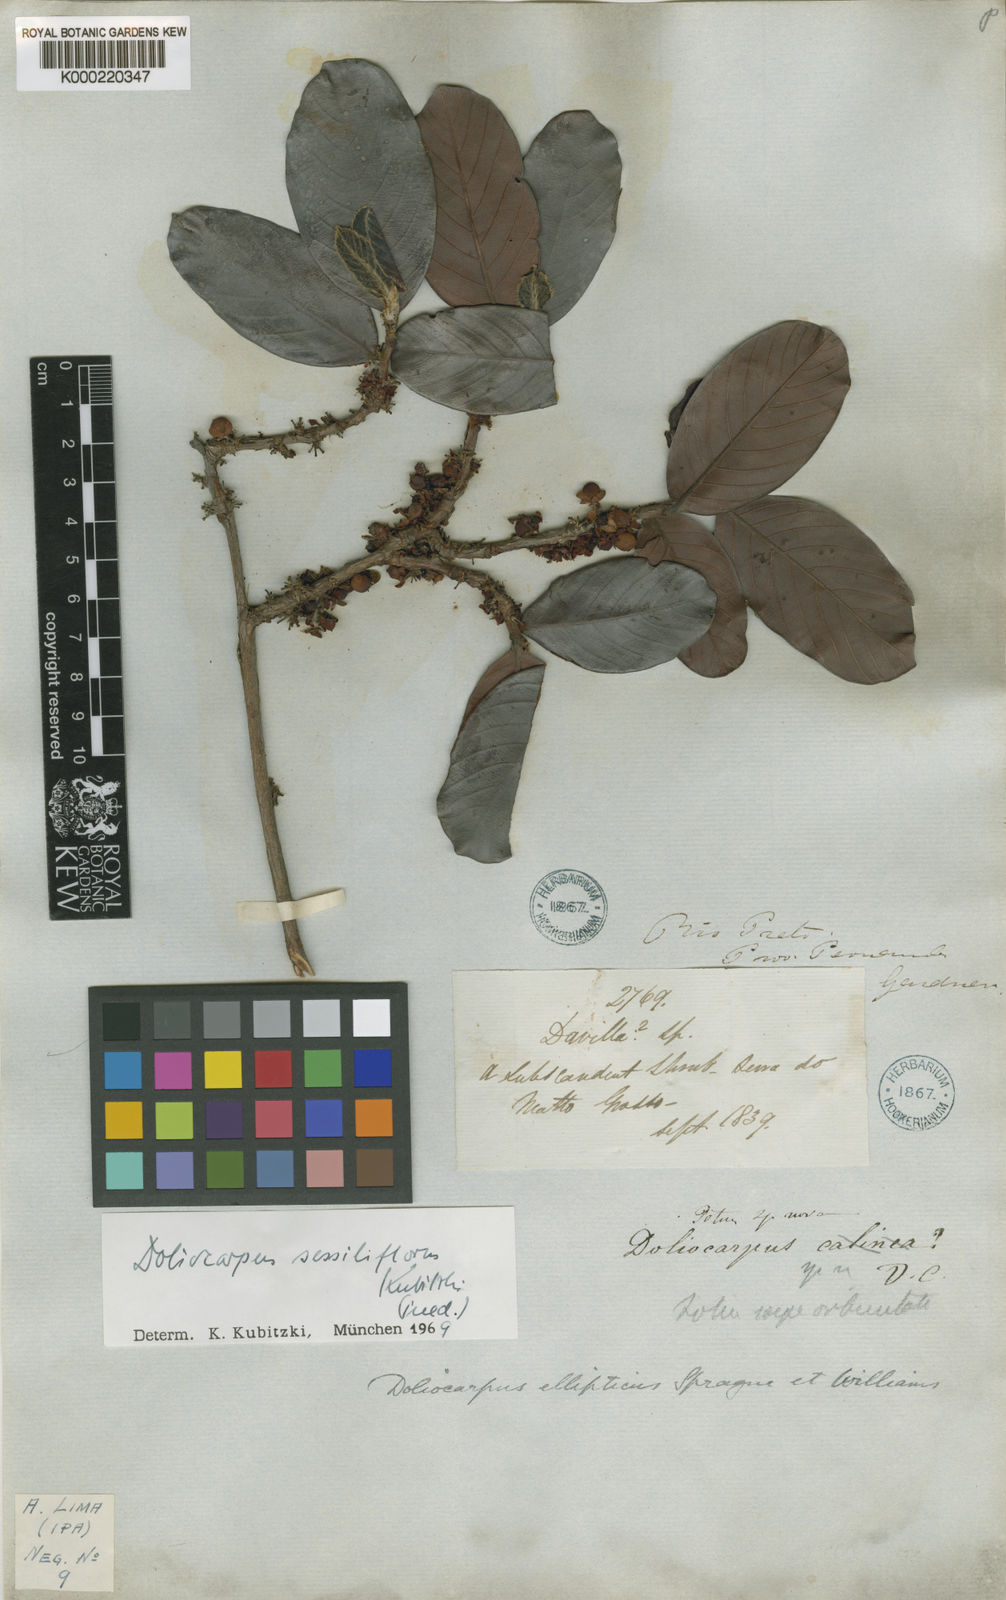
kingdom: Plantae
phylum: Tracheophyta
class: Magnoliopsida
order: Dilleniales
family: Dilleniaceae
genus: Doliocarpus
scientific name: Doliocarpus
